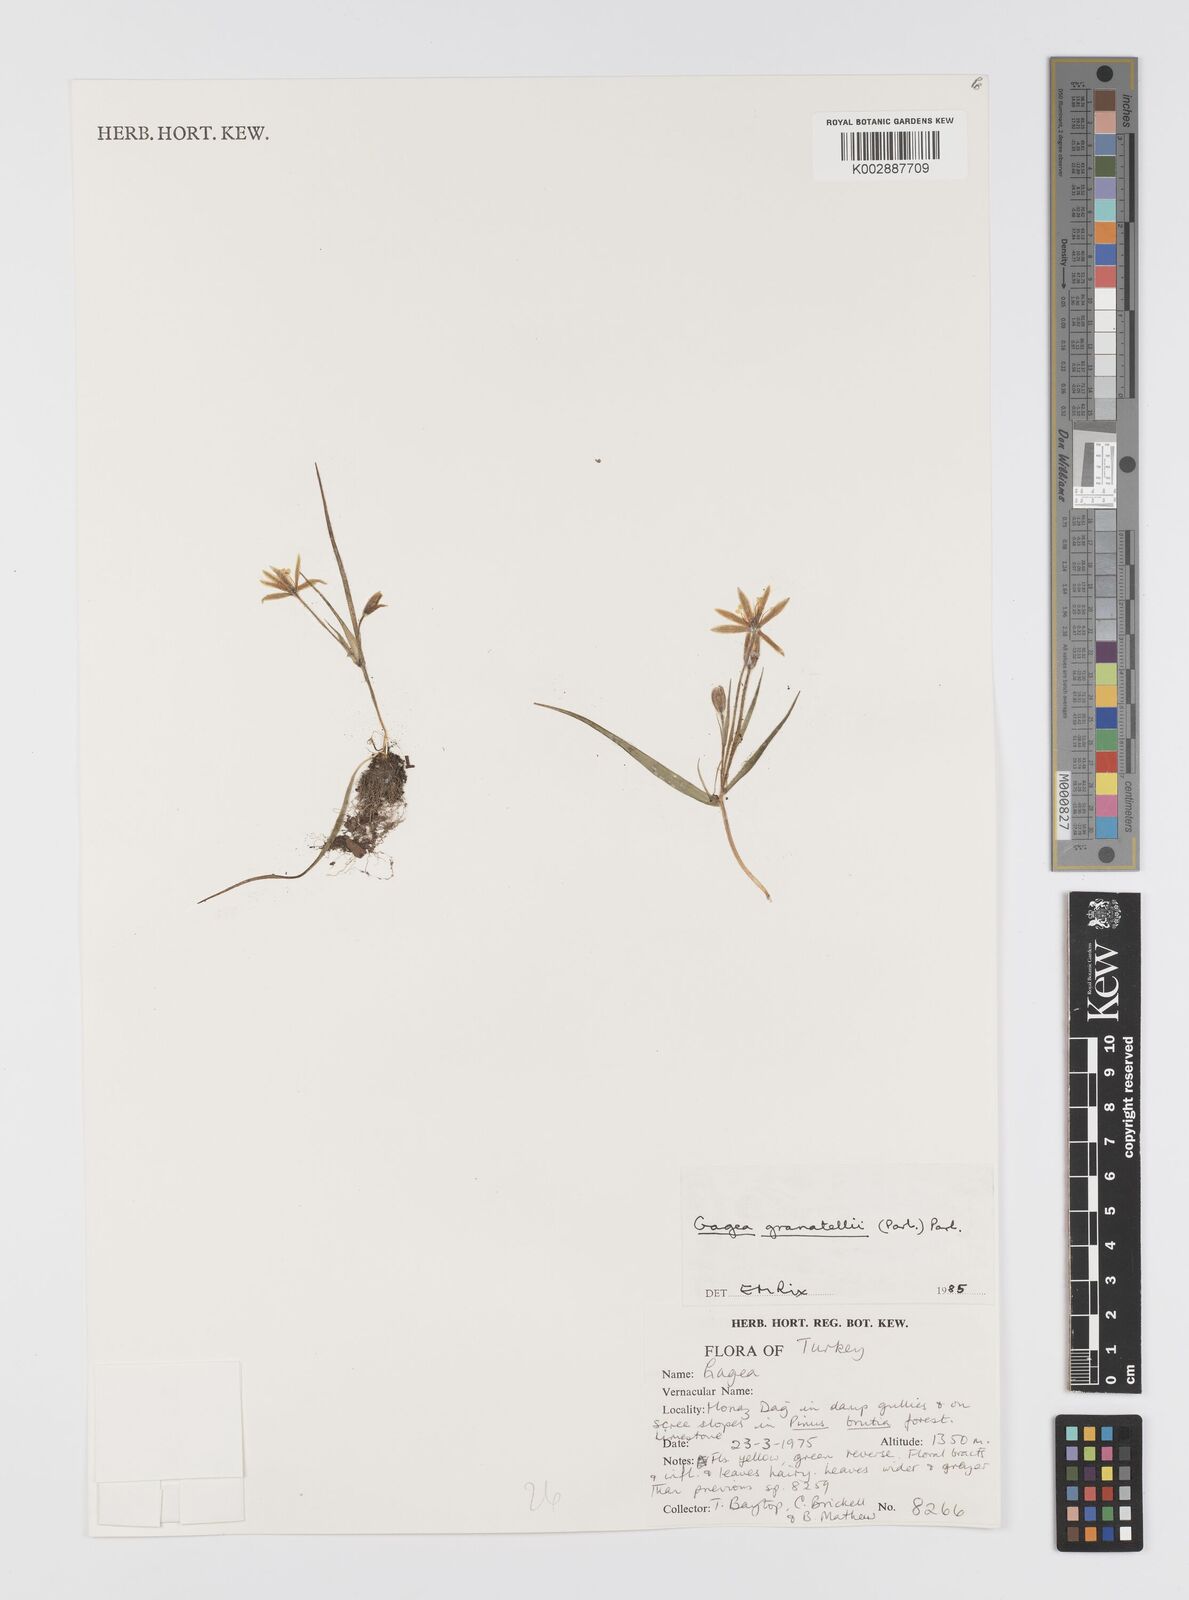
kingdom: Plantae
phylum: Tracheophyta
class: Liliopsida
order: Liliales
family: Liliaceae
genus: Gagea
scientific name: Gagea granatellii
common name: Granatelli’s gagea
